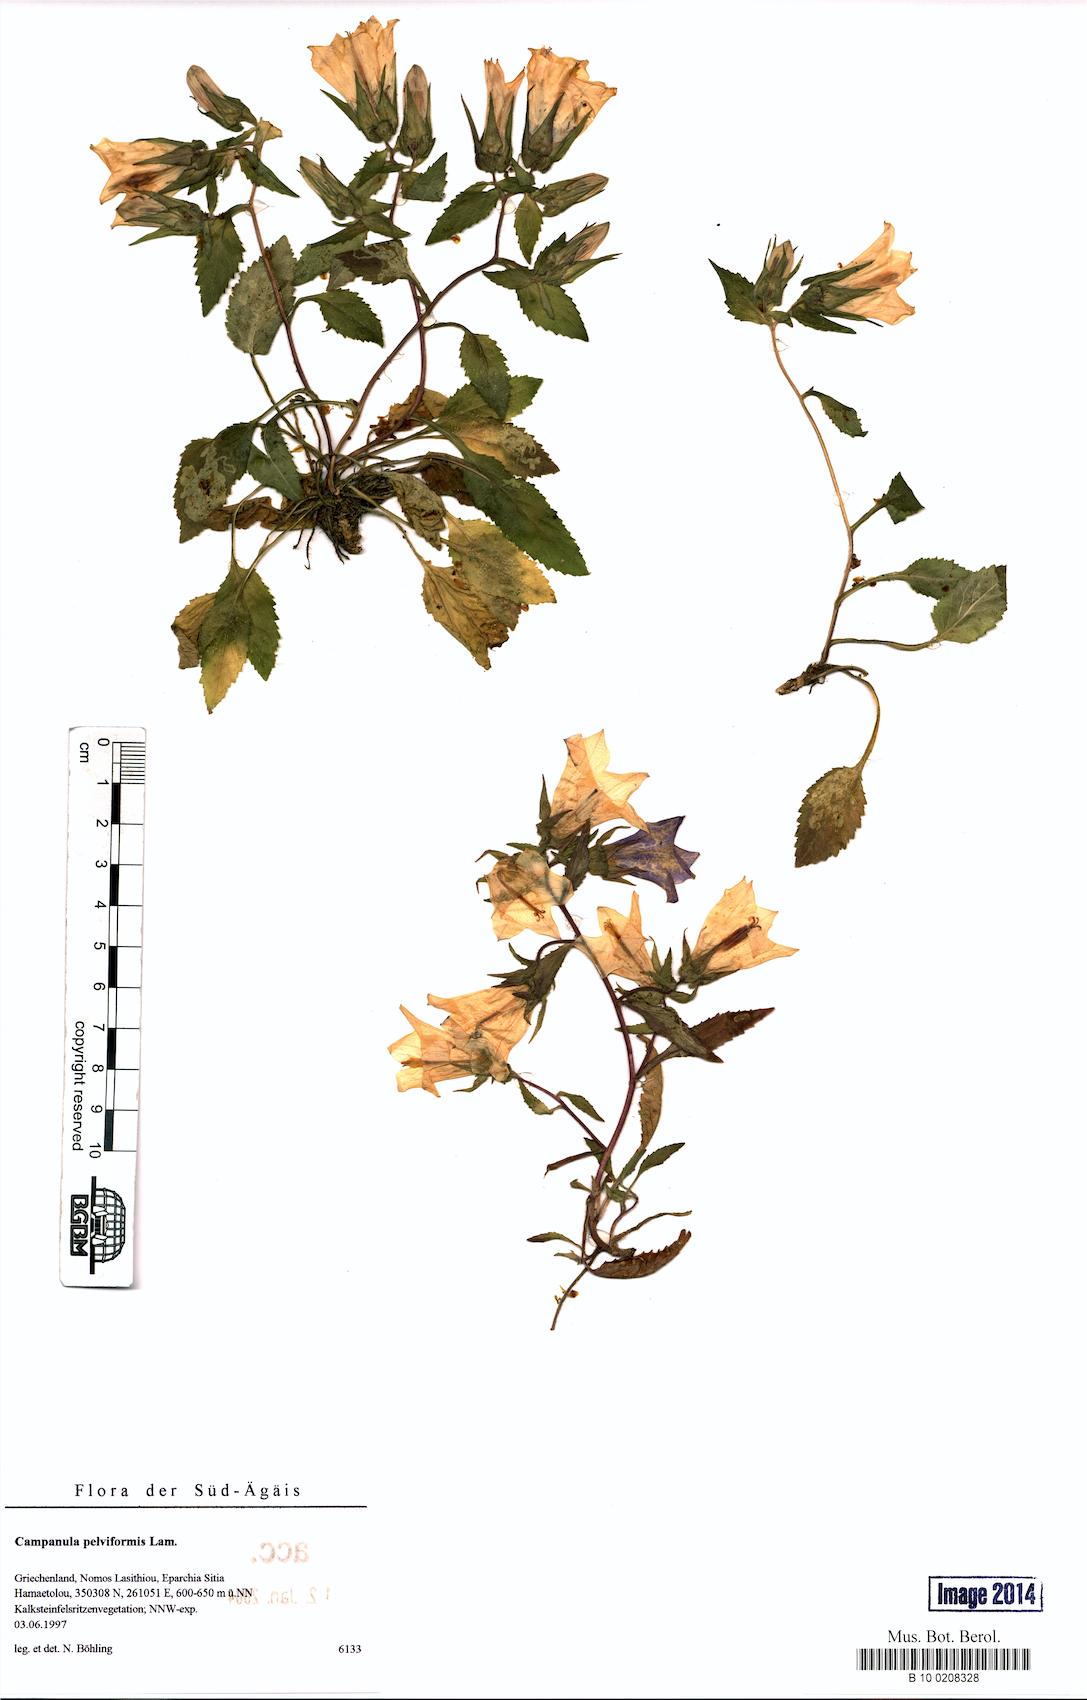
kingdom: Plantae
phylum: Tracheophyta
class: Magnoliopsida
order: Asterales
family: Campanulaceae
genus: Campanula
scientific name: Campanula pelviformis
